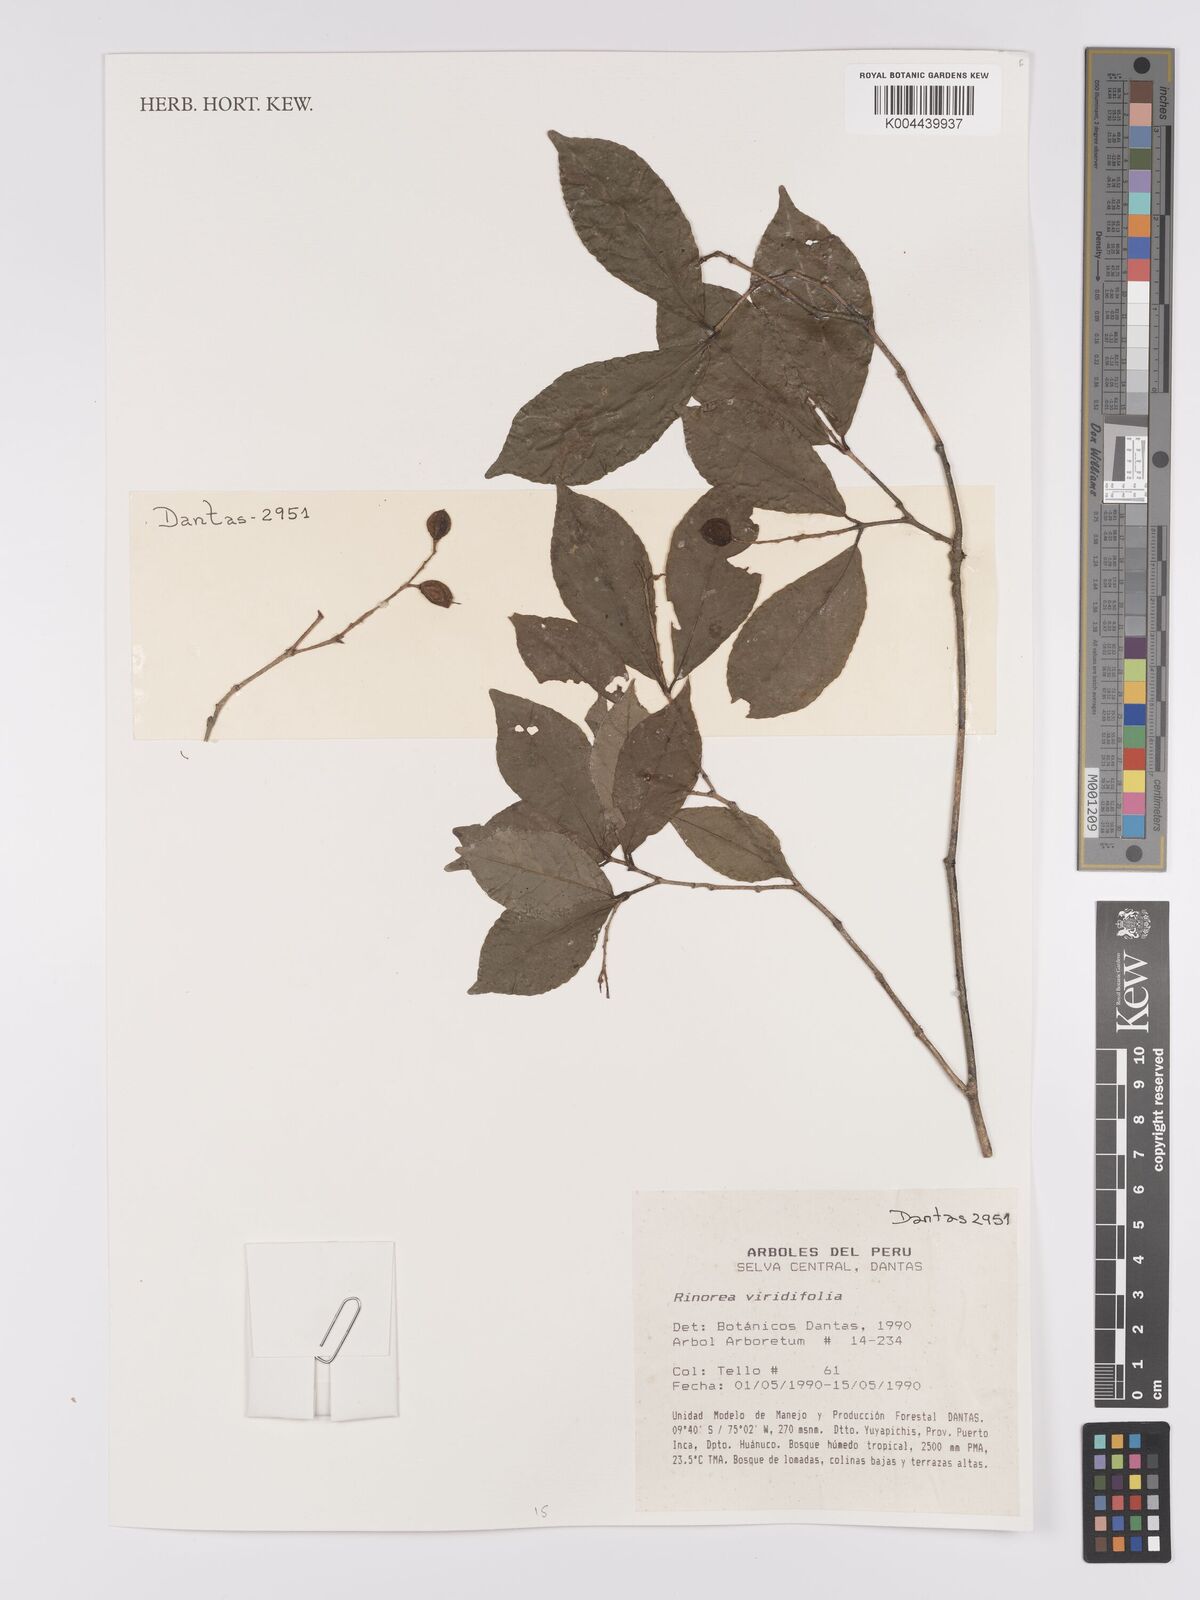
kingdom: Plantae
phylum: Tracheophyta
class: Magnoliopsida
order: Malpighiales
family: Violaceae
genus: Rinorea
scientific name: Rinorea viridifolia
